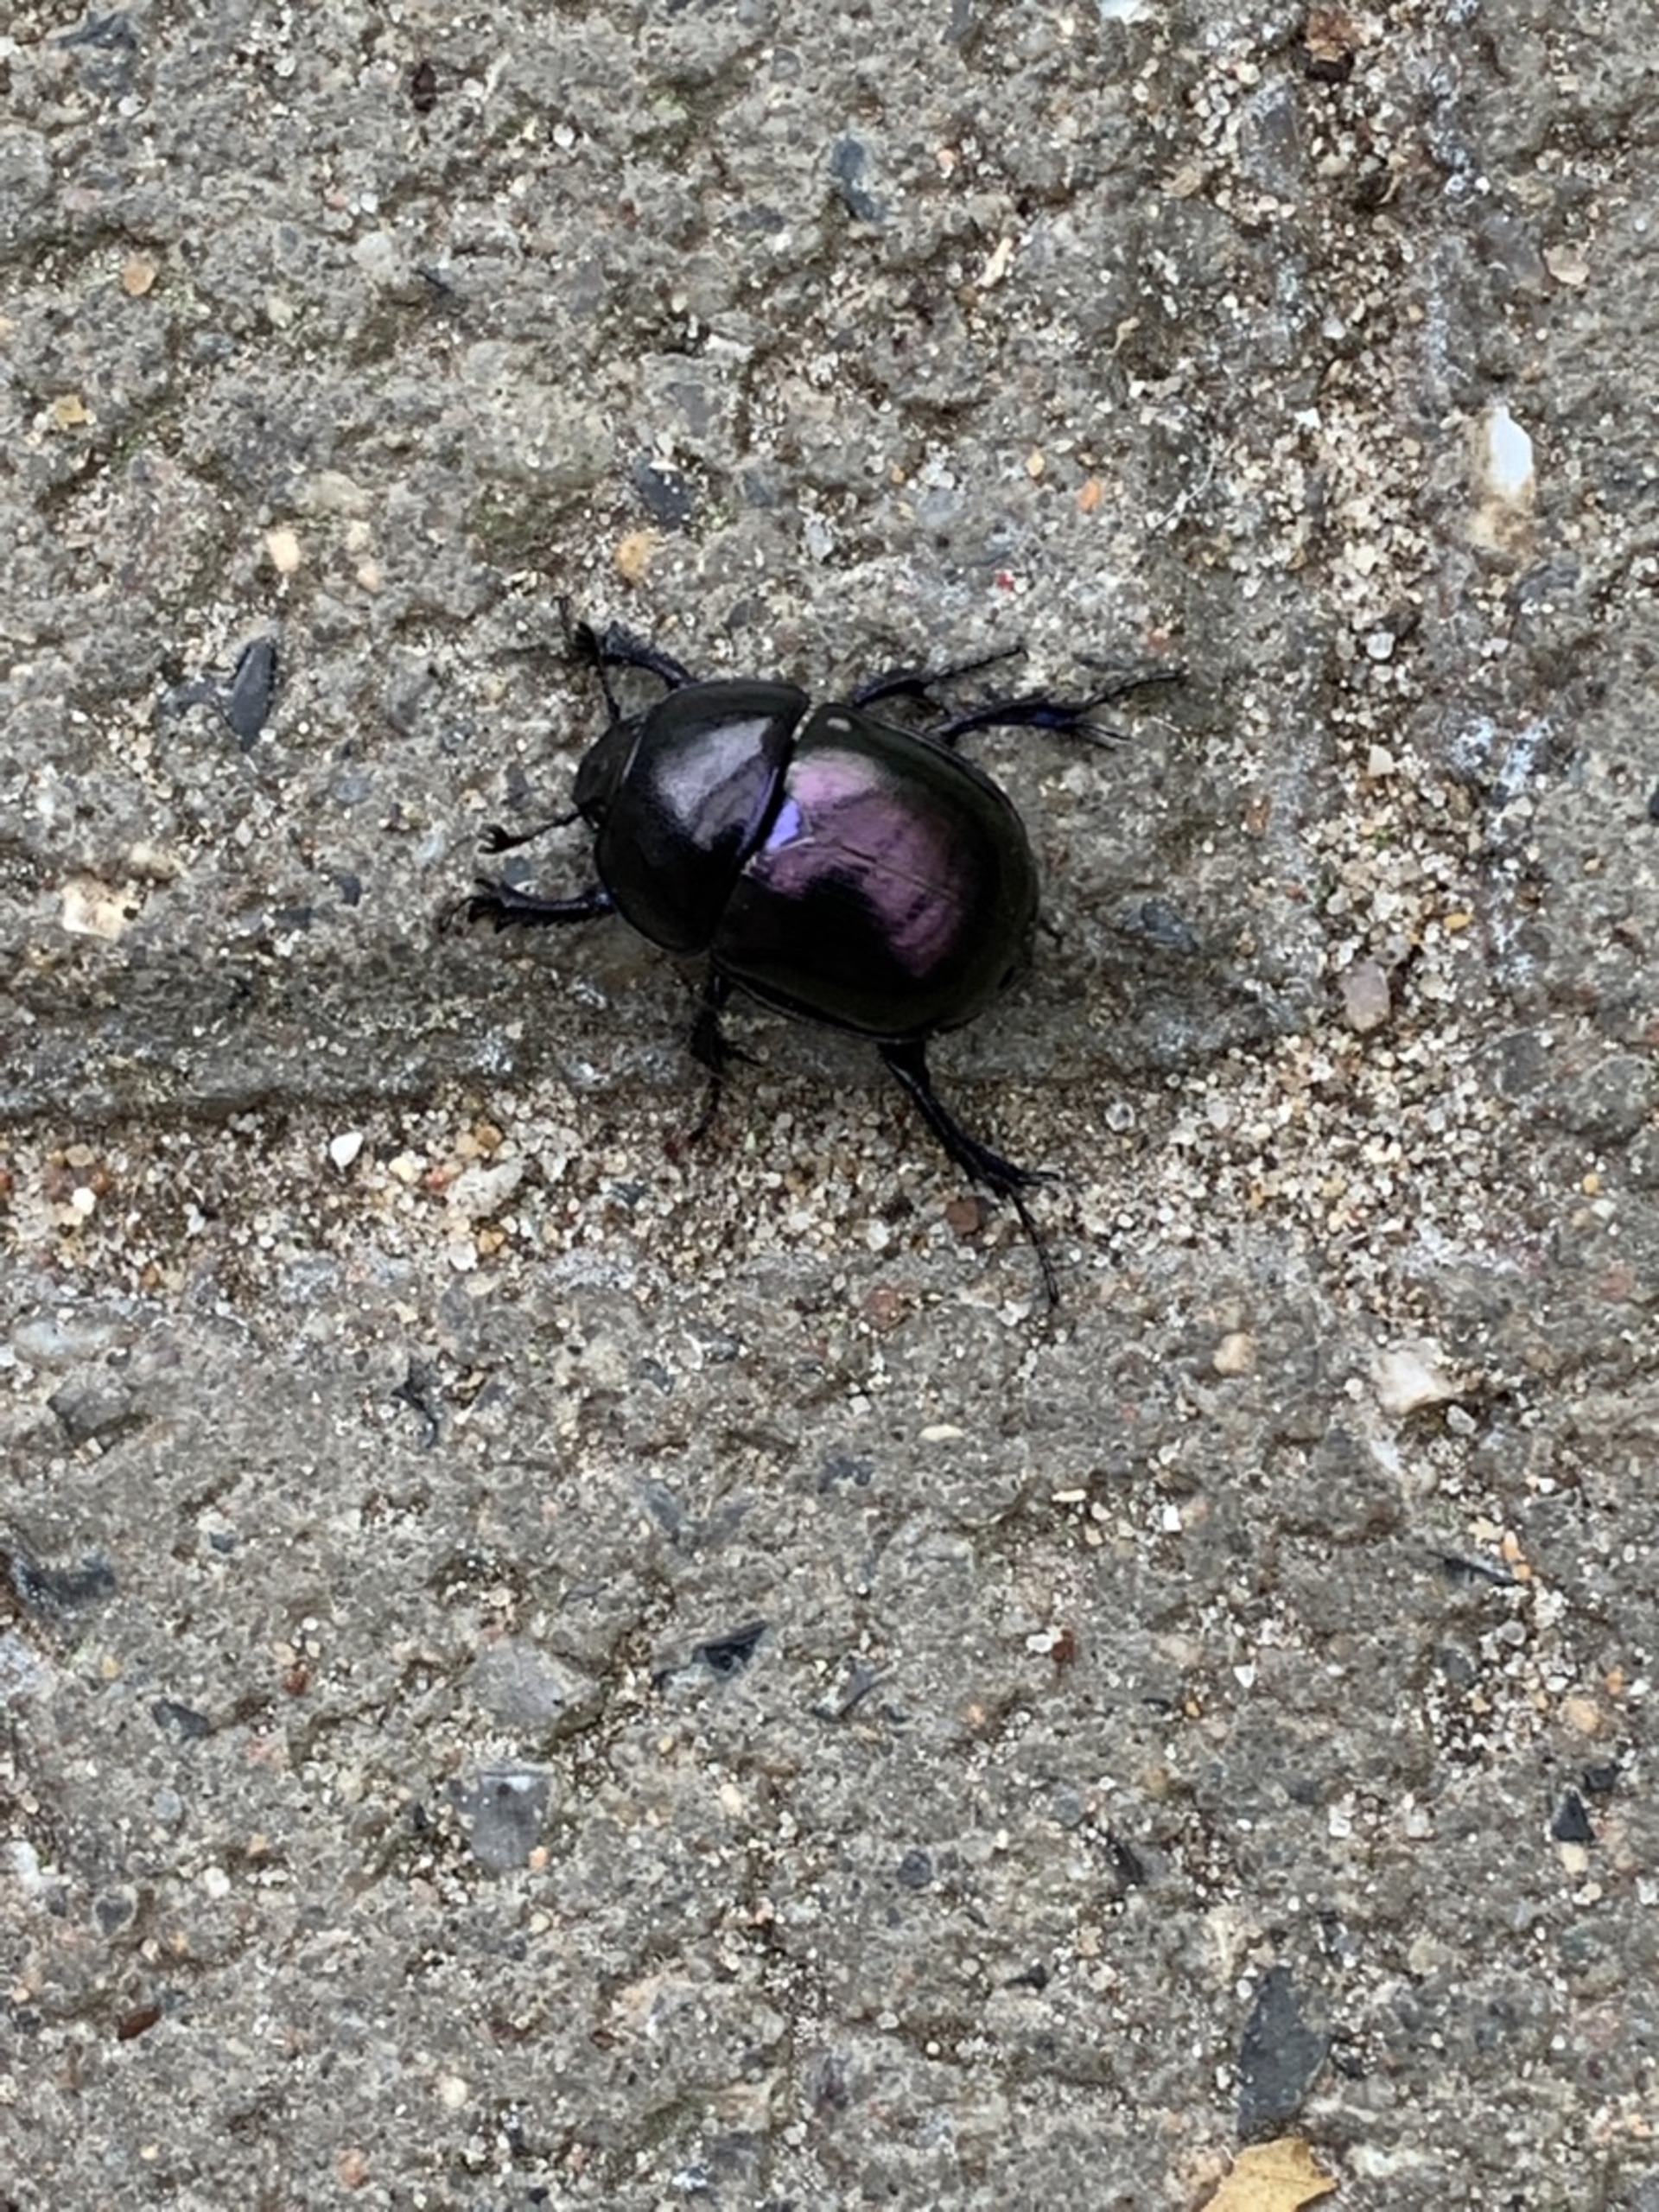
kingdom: Animalia
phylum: Arthropoda
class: Insecta
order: Coleoptera
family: Geotrupidae
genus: Trypocopris
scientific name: Trypocopris vernalis
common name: Glat skarnbasse
